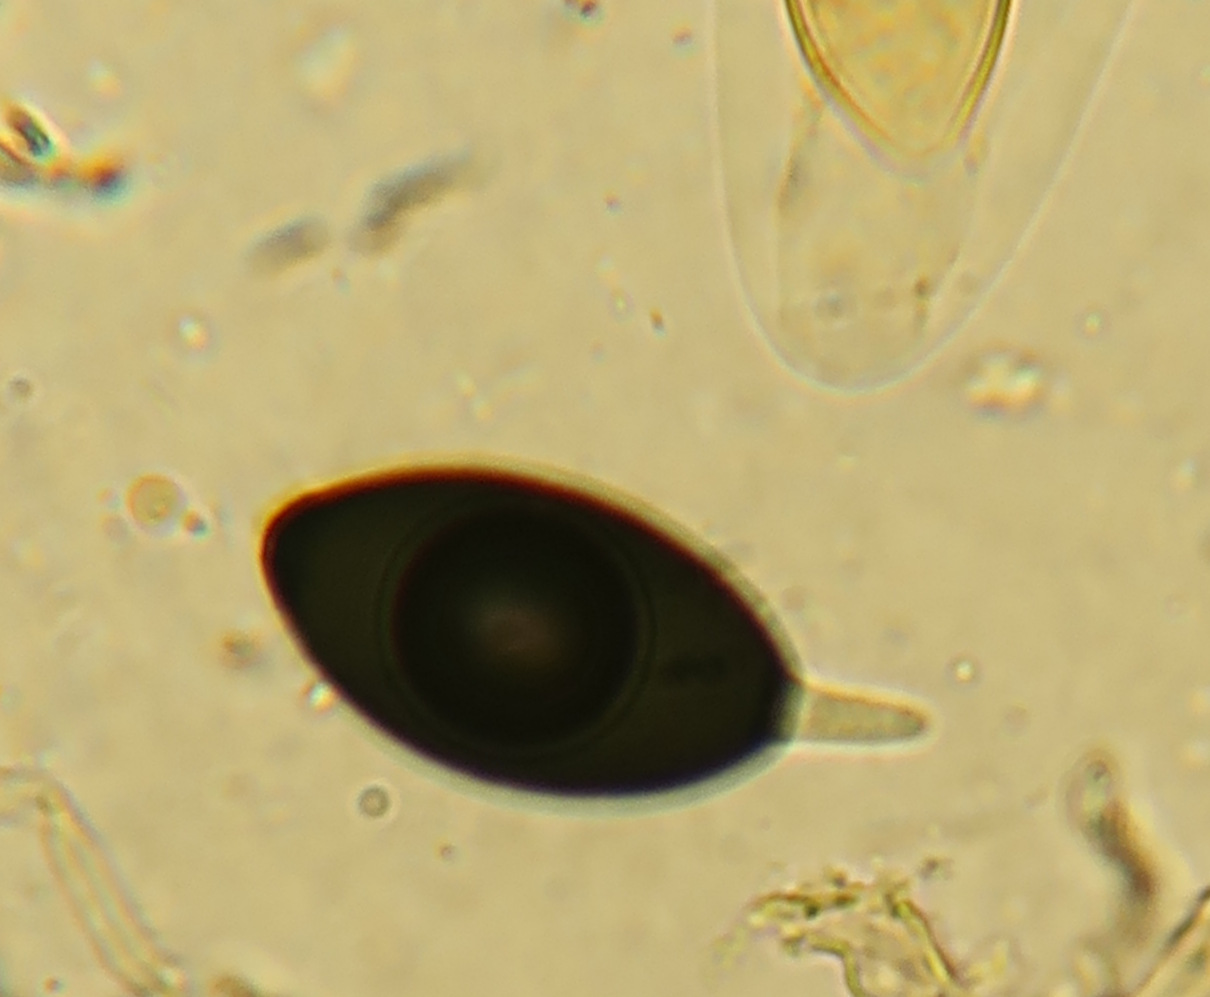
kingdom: Fungi
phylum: Ascomycota
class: Sordariomycetes
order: Sordariales
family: Podosporaceae
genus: Podospora
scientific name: Podospora
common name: kernesvamp
